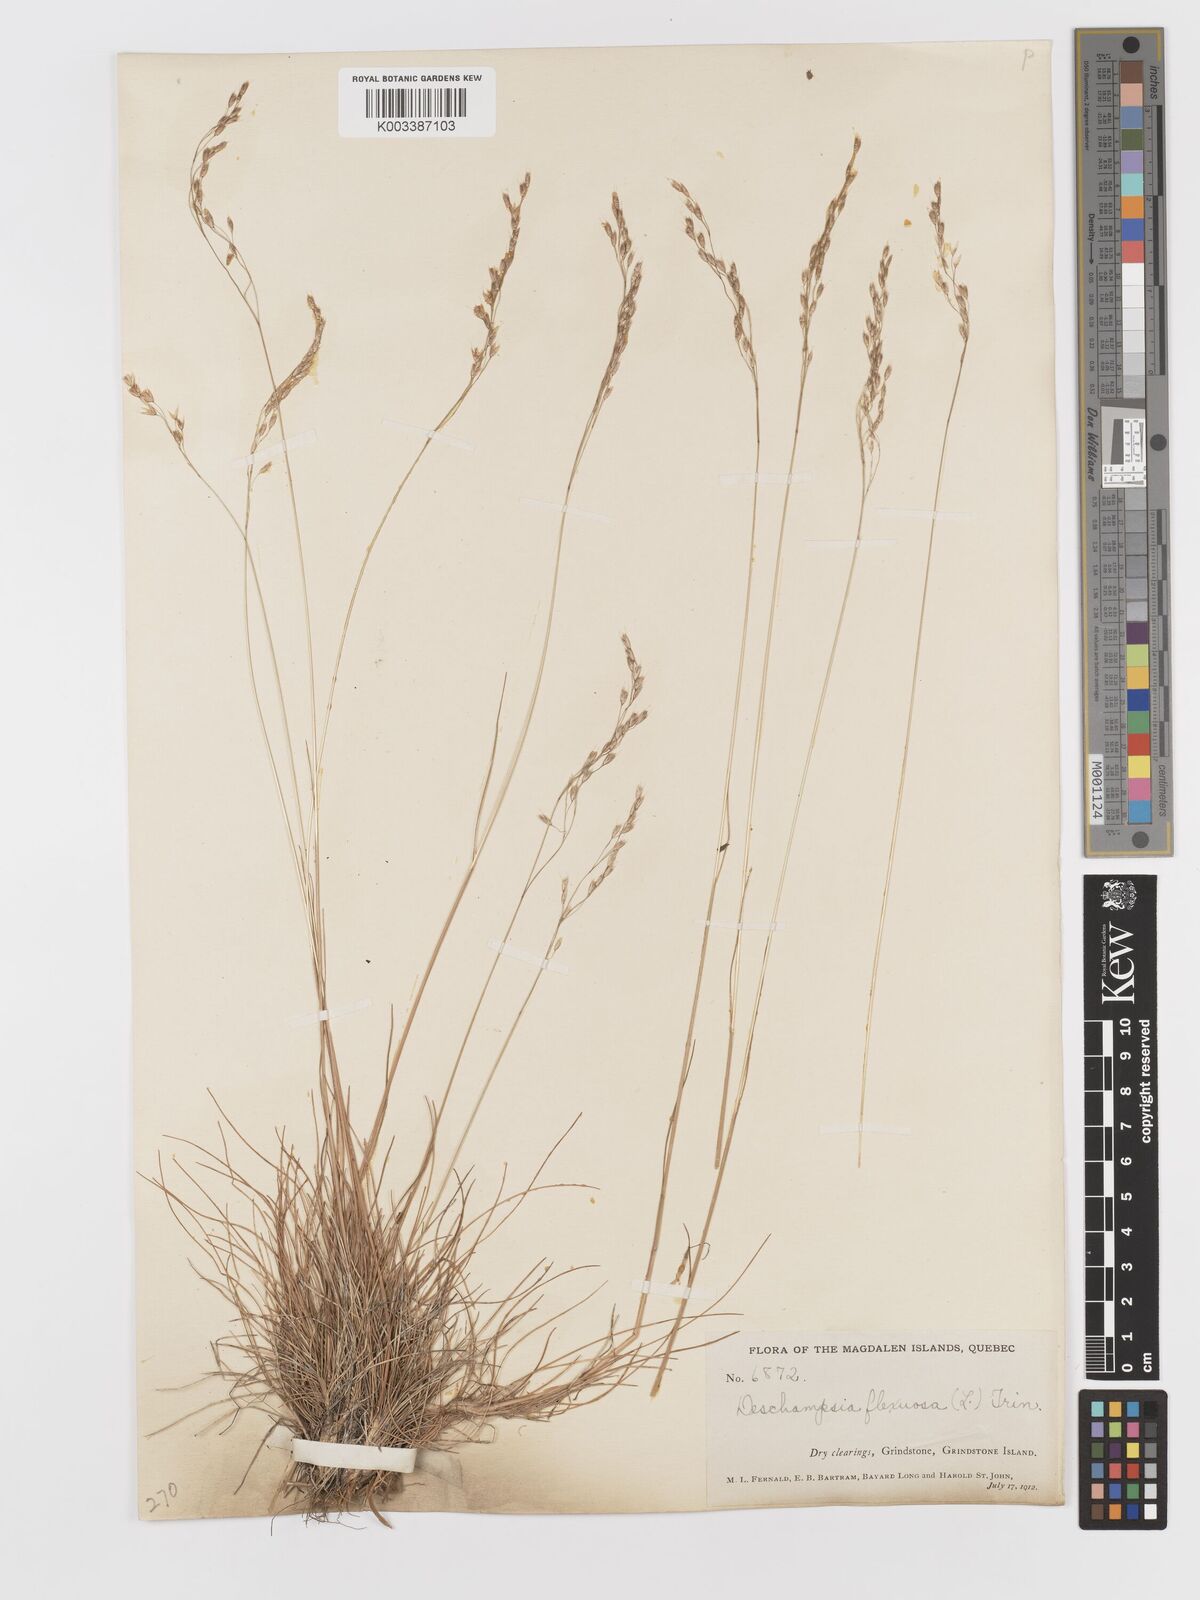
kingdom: Plantae
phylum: Tracheophyta
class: Liliopsida
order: Poales
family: Poaceae
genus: Avenella
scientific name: Avenella flexuosa
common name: Wavy hairgrass
